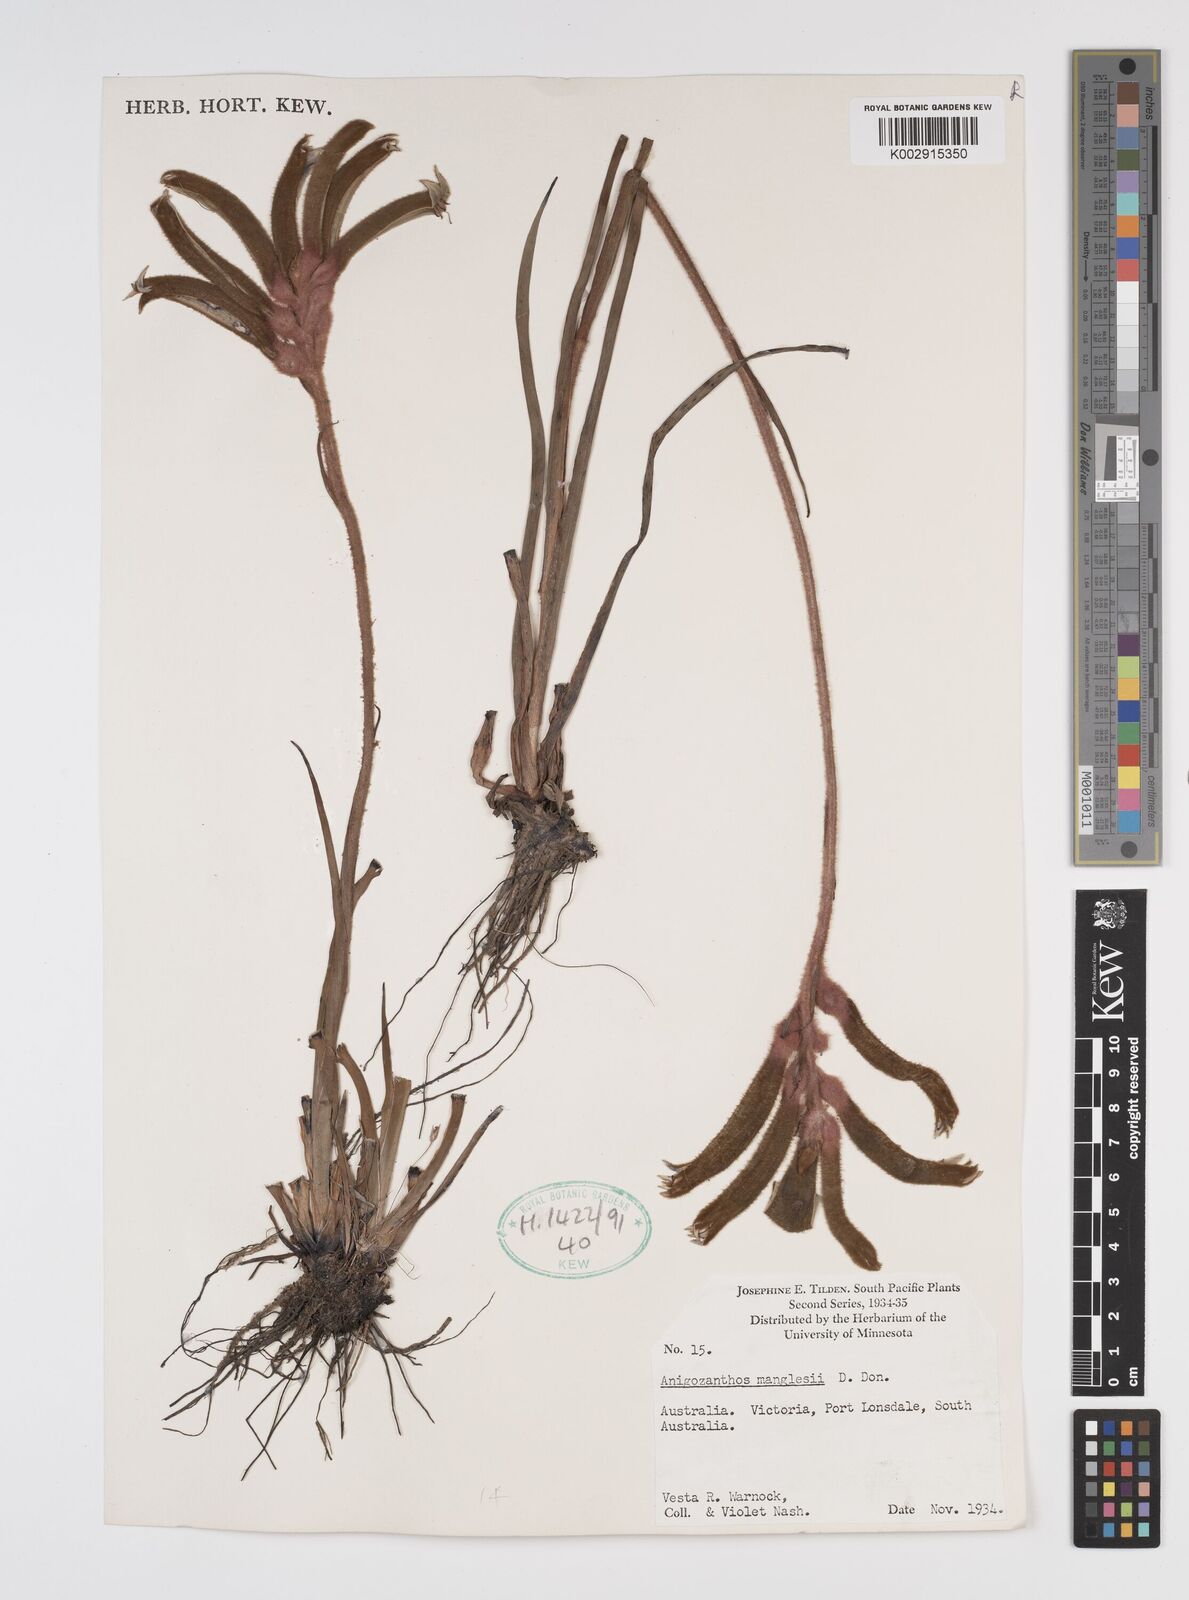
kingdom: Plantae
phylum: Tracheophyta
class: Liliopsida
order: Commelinales
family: Haemodoraceae
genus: Anigozanthos
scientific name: Anigozanthos manglesii
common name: Mangles's kangaroo-paw
